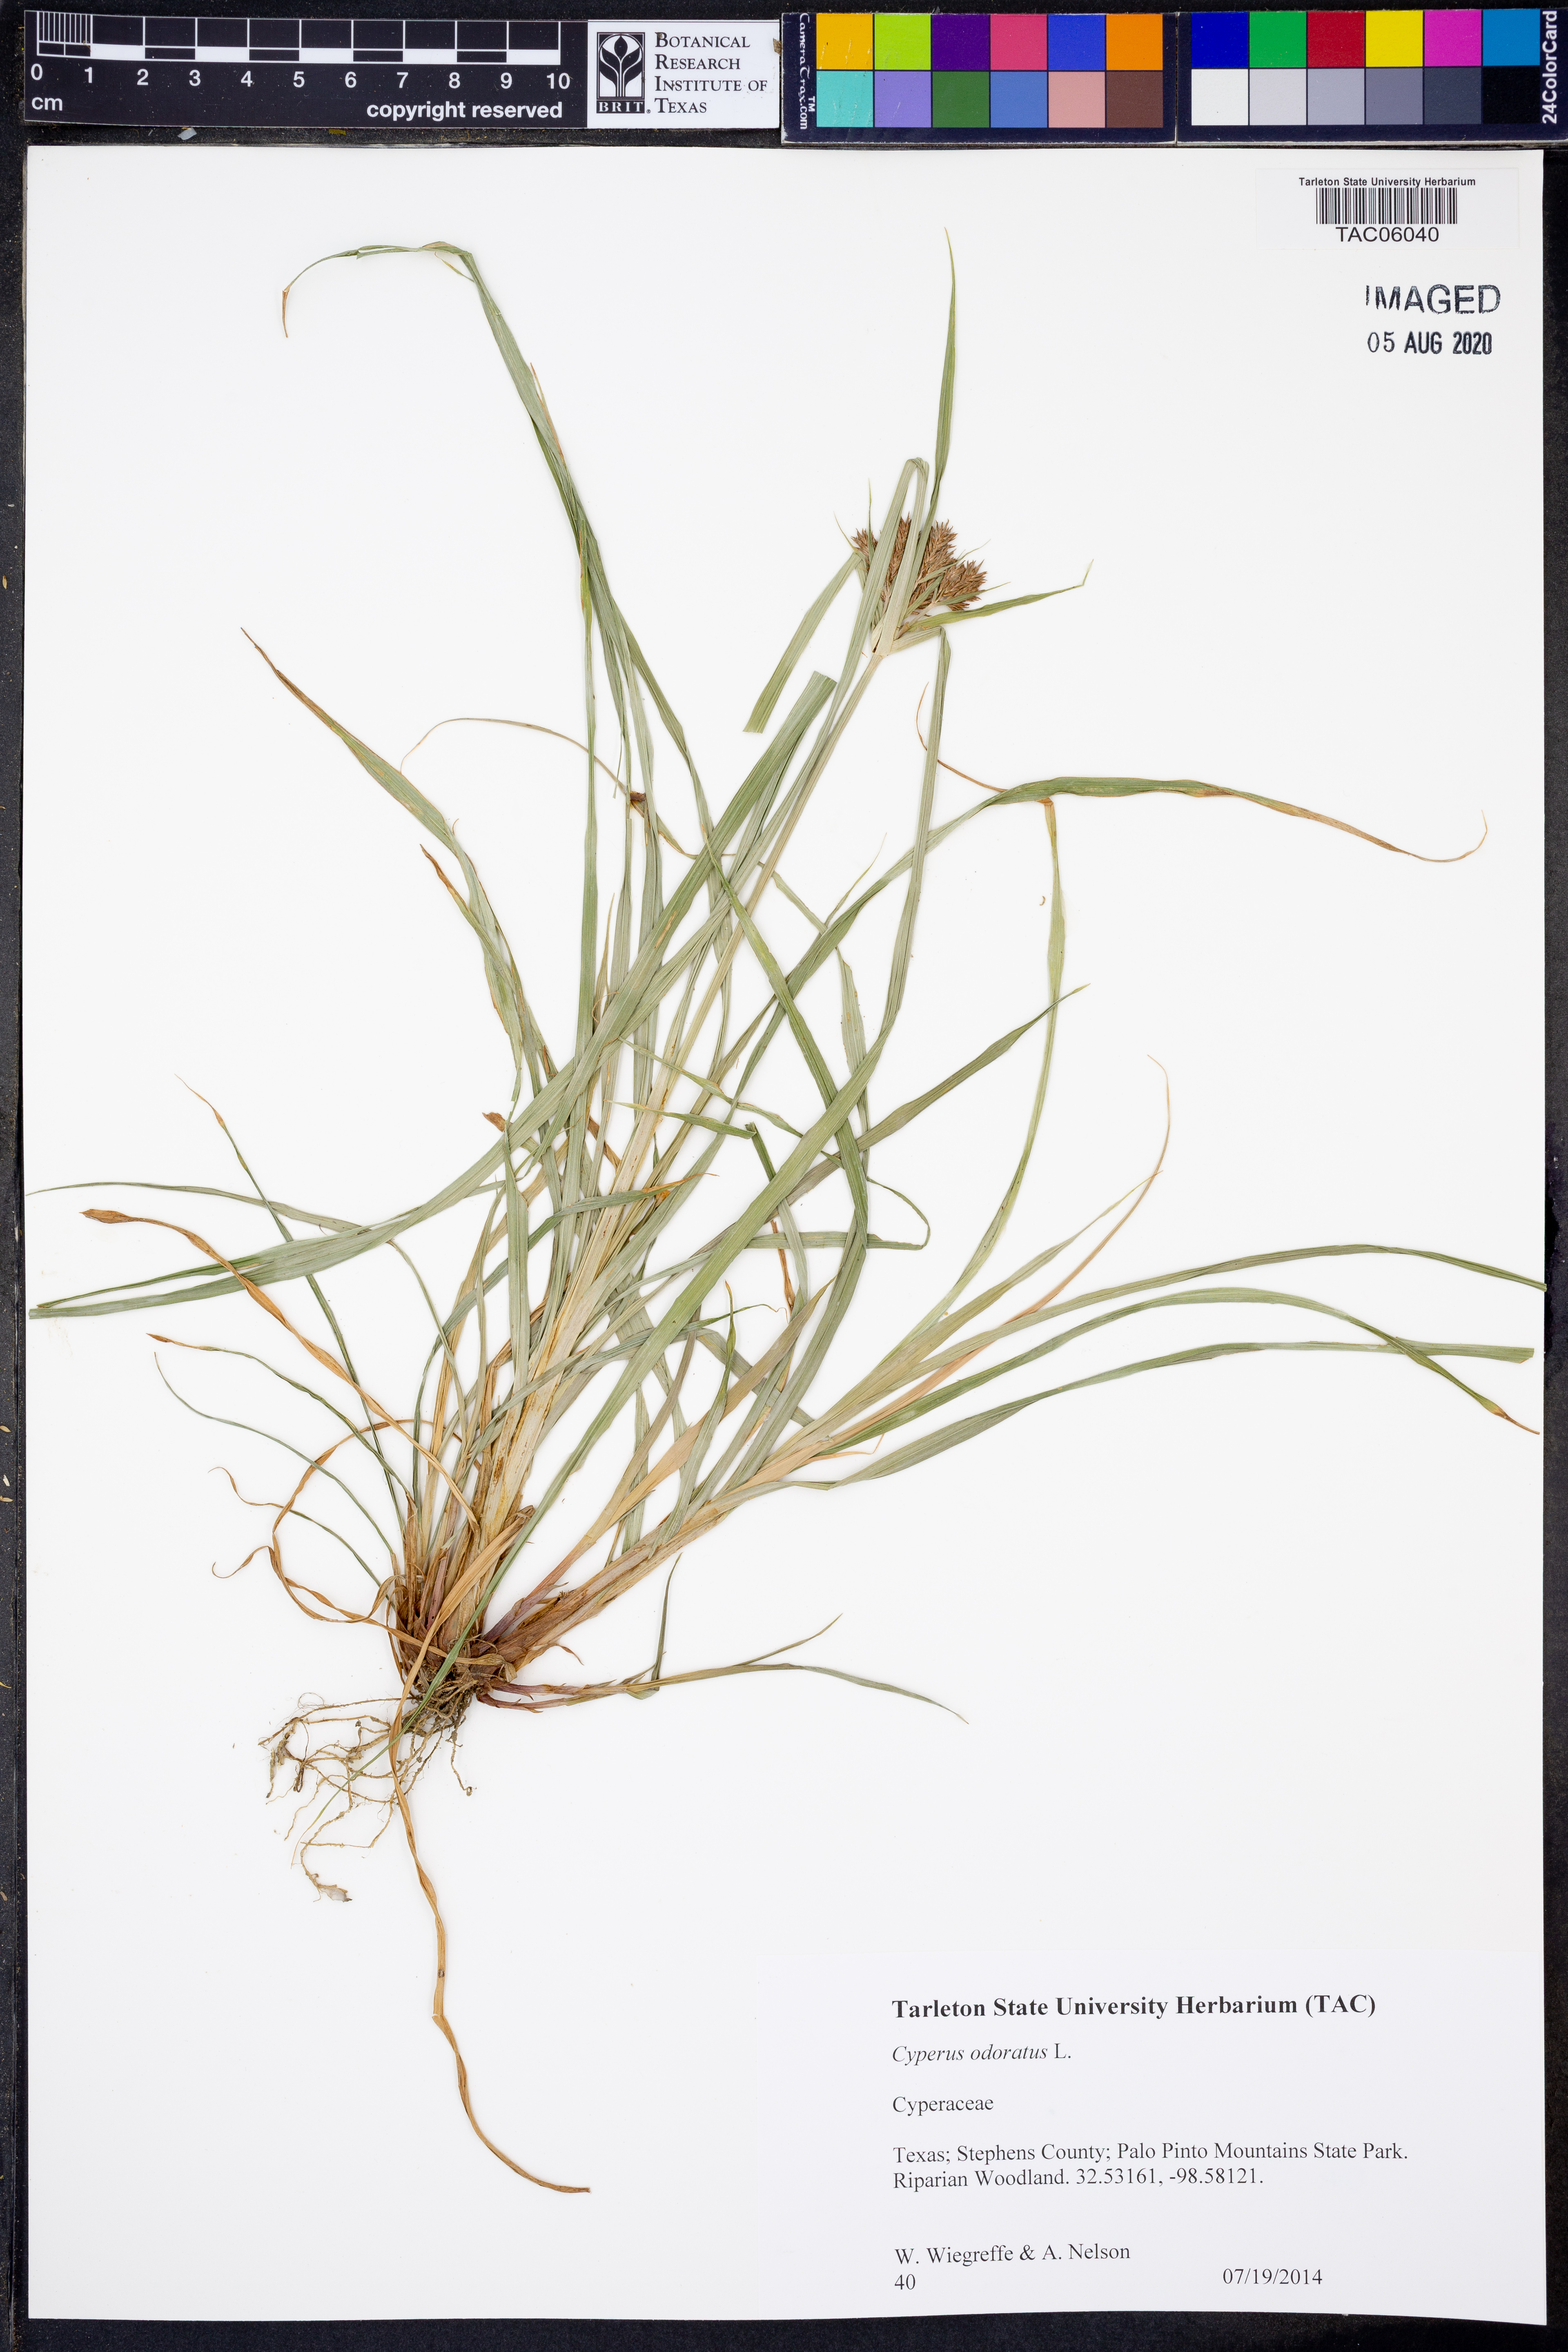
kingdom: Plantae
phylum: Tracheophyta
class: Liliopsida
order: Poales
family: Cyperaceae
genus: Cyperus
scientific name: Cyperus odoratus
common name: Fragrant flatsedge
